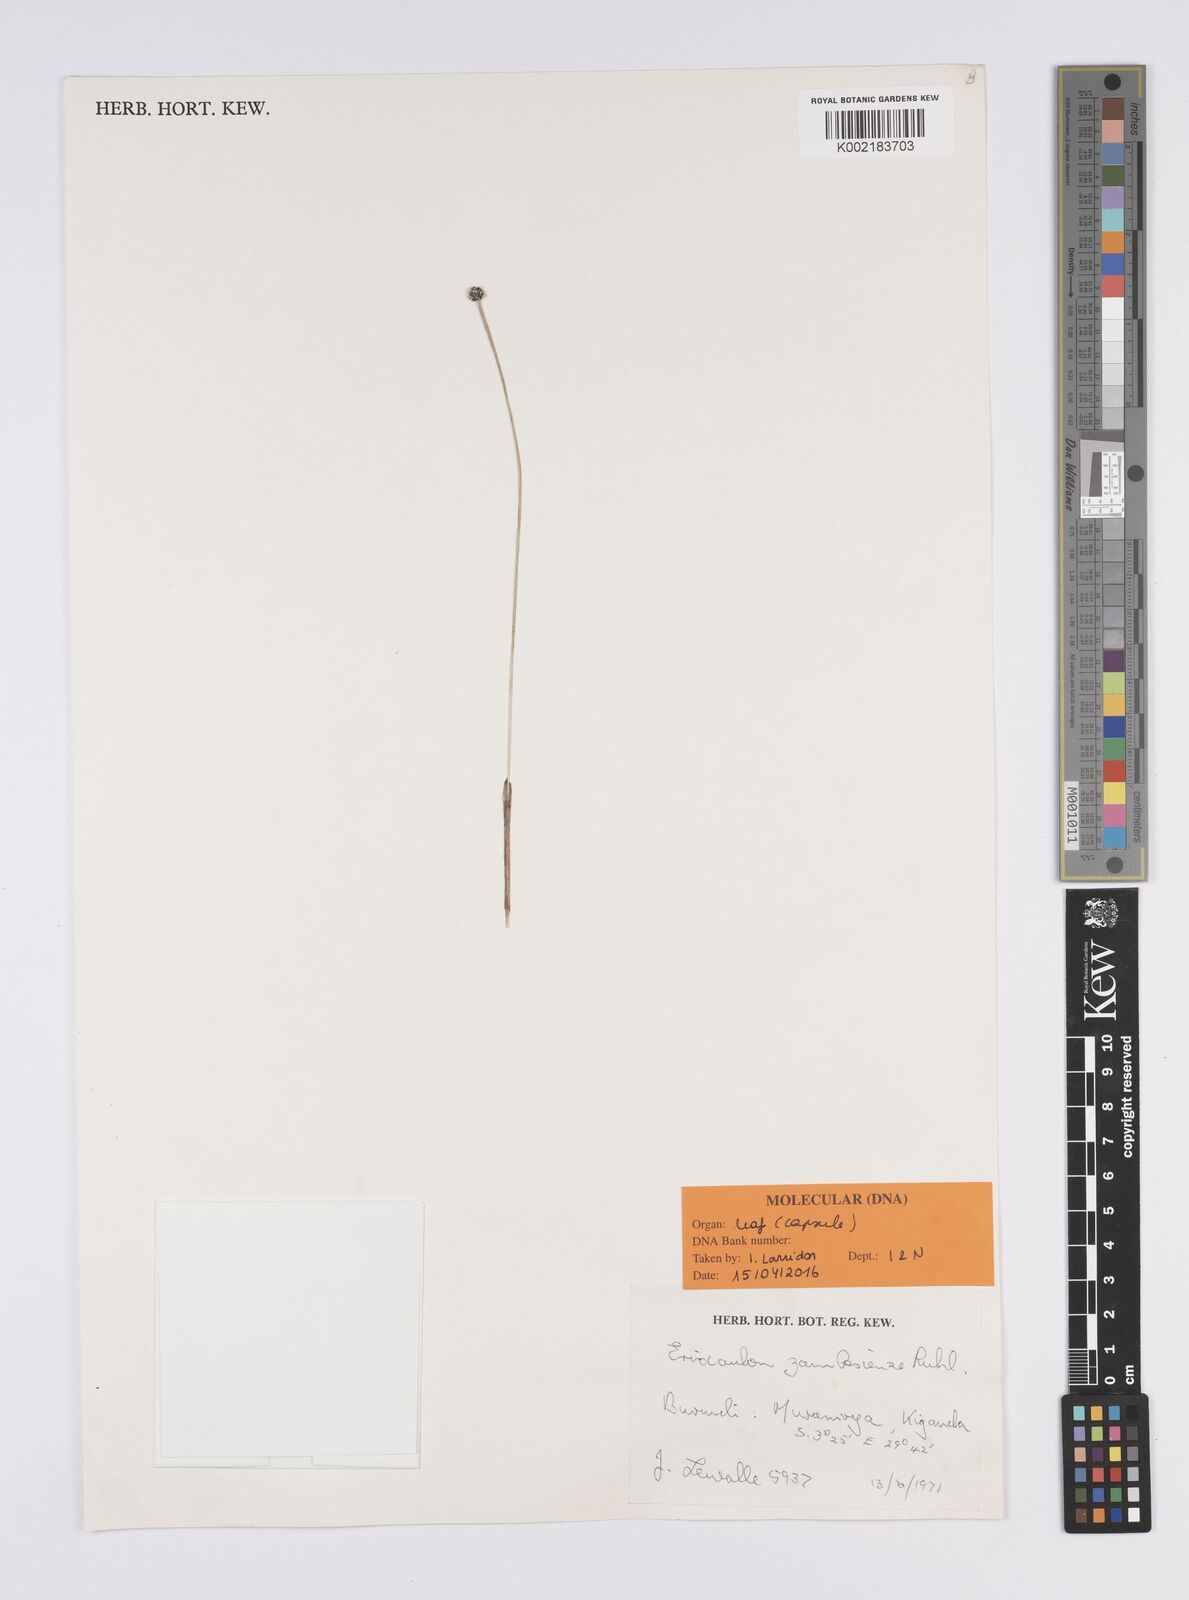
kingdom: Plantae
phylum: Tracheophyta
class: Liliopsida
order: Poales
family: Eriocaulaceae
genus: Eriocaulon
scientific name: Eriocaulon zambesiense
